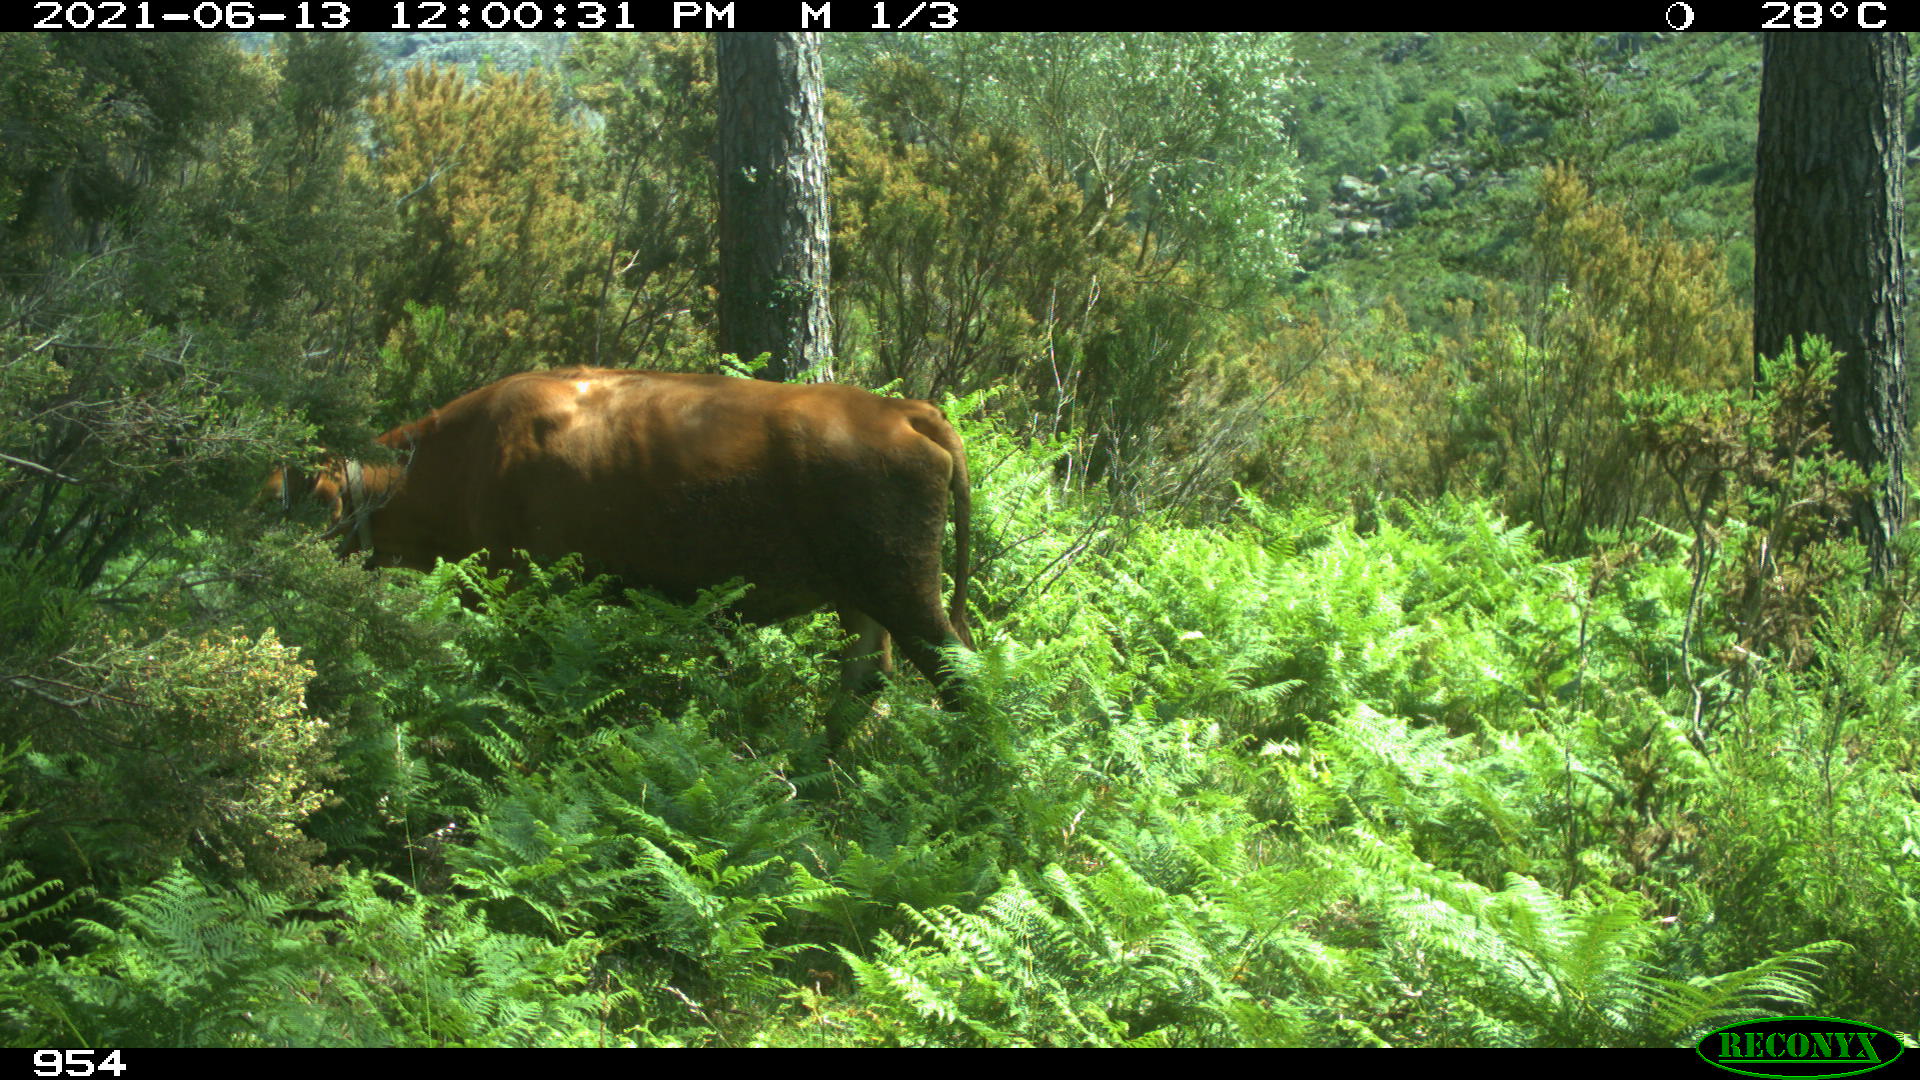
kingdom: Animalia
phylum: Chordata
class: Mammalia
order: Artiodactyla
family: Bovidae
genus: Bos
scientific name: Bos taurus
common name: Domesticated cattle
